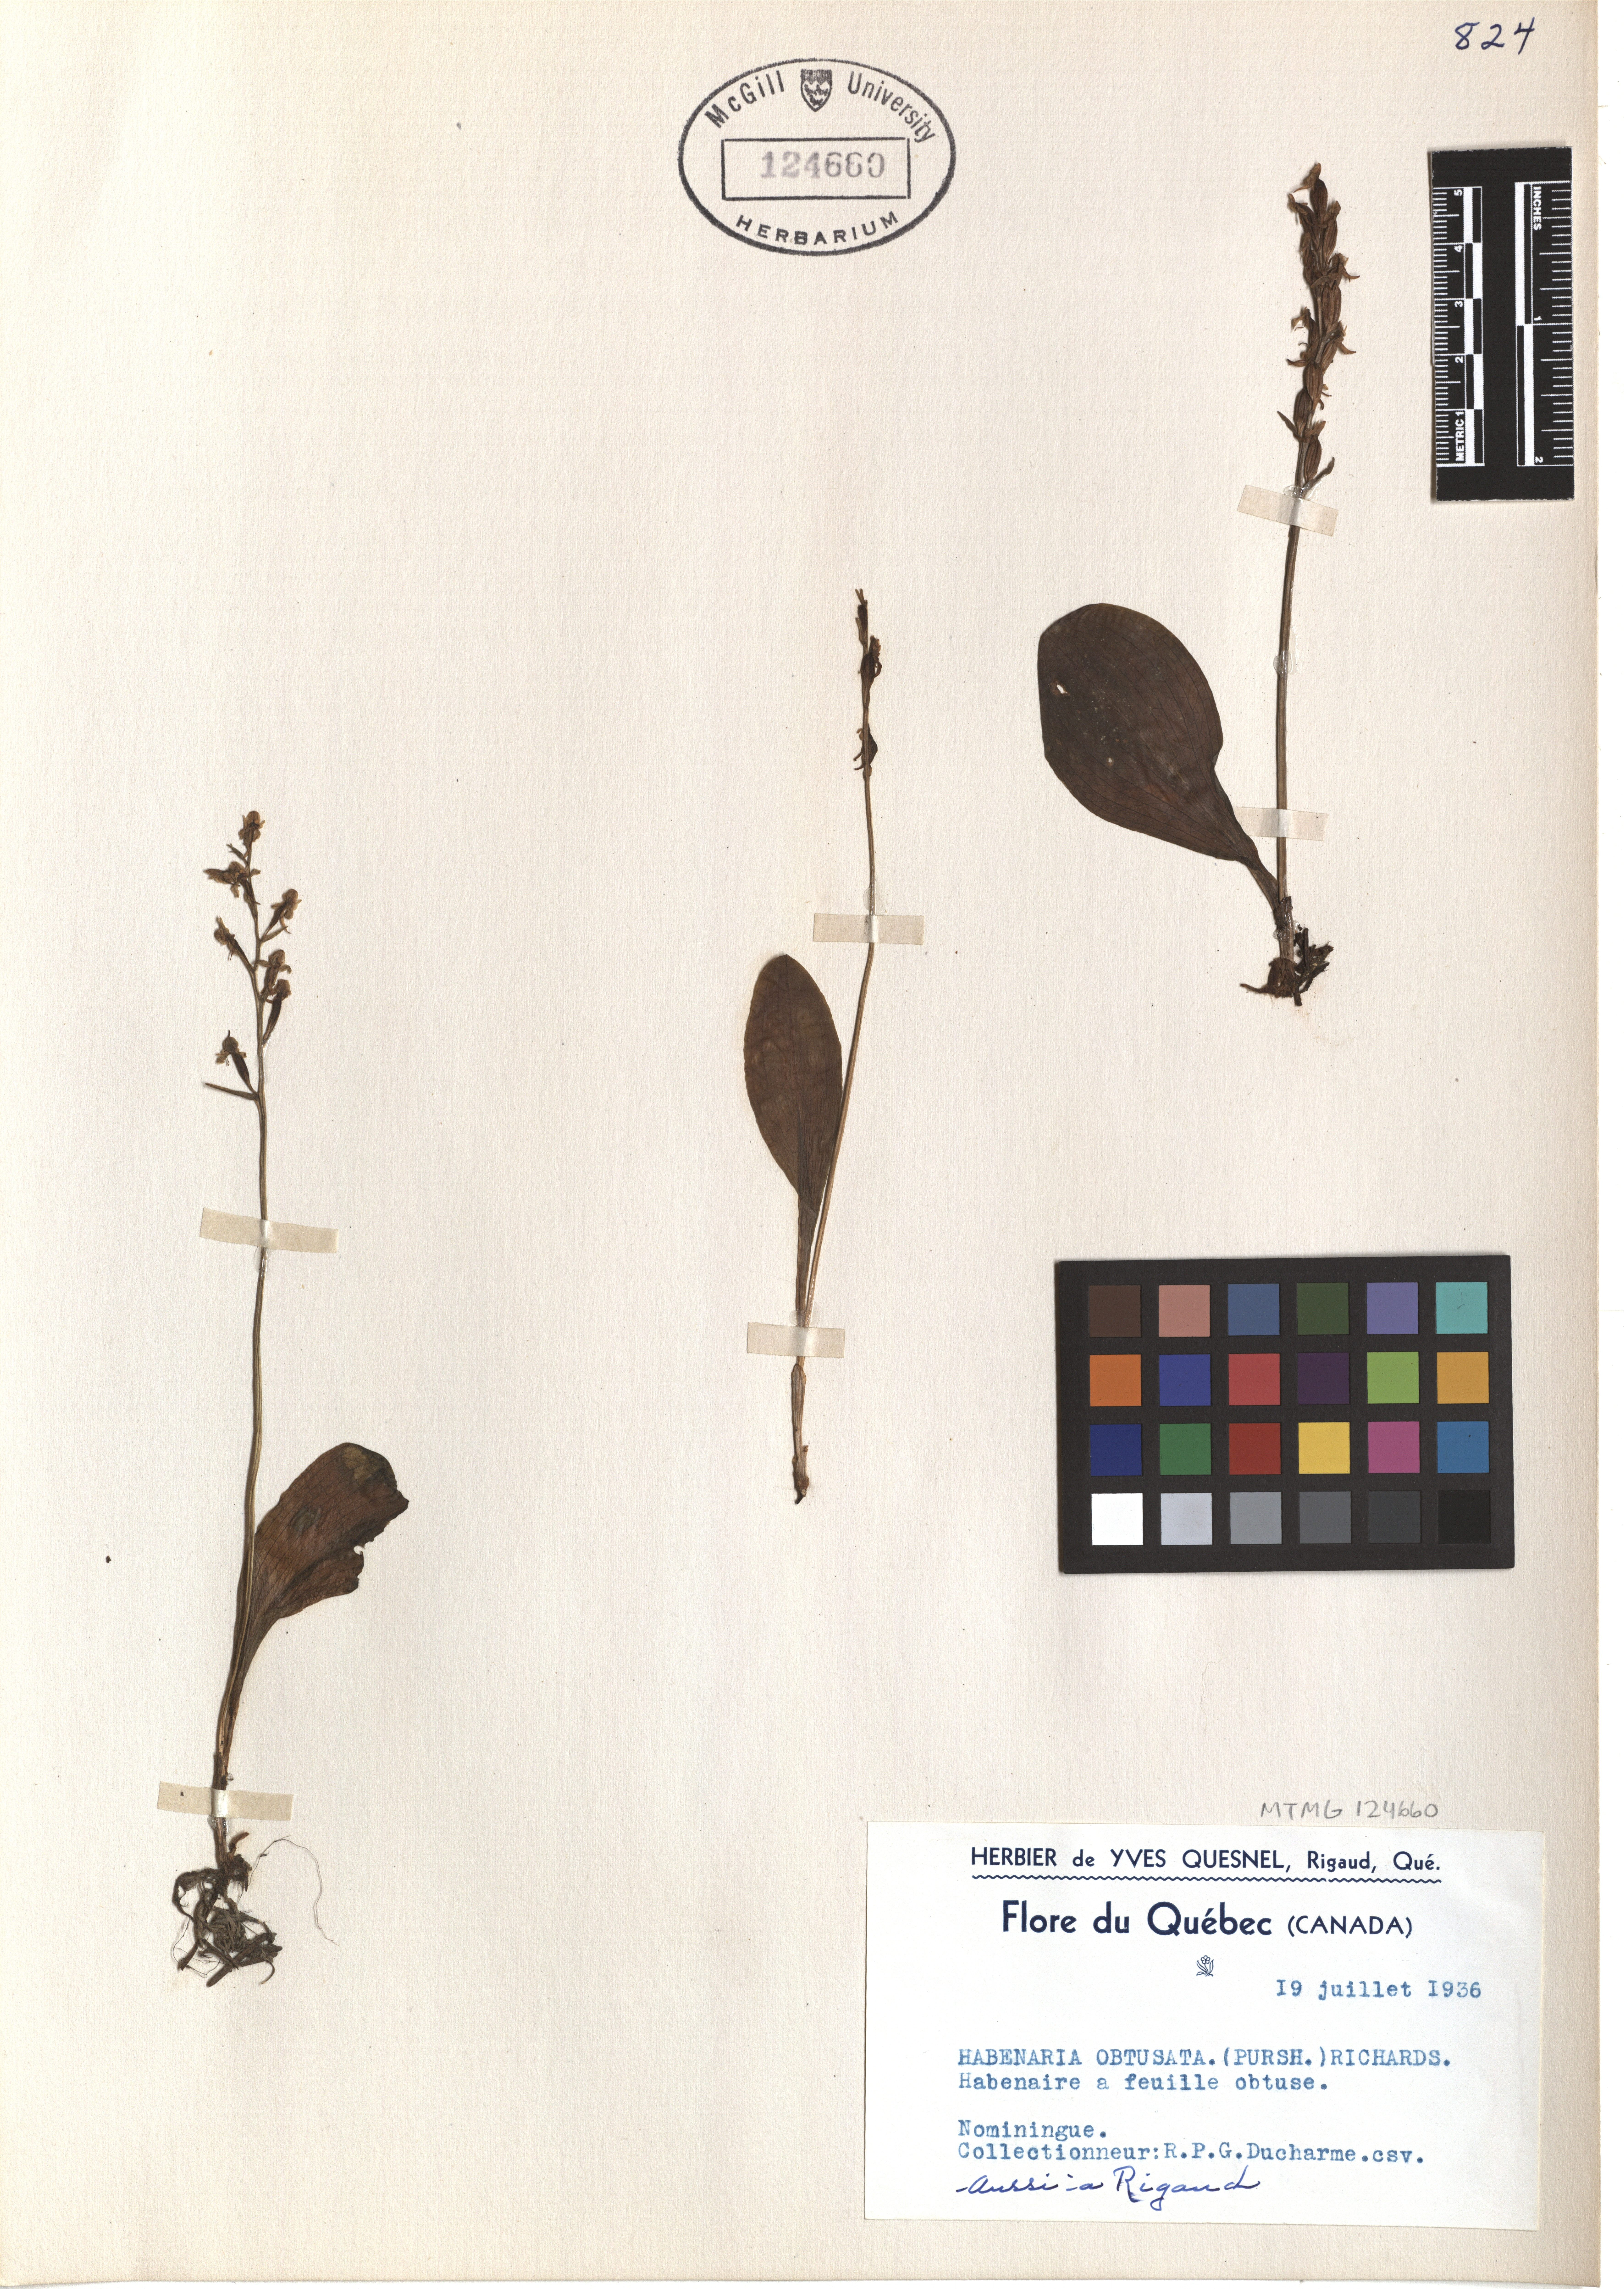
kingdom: Plantae
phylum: Tracheophyta
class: Liliopsida
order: Asparagales
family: Orchidaceae
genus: Platanthera
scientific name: Platanthera obtusata
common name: Blunt bog orchid
